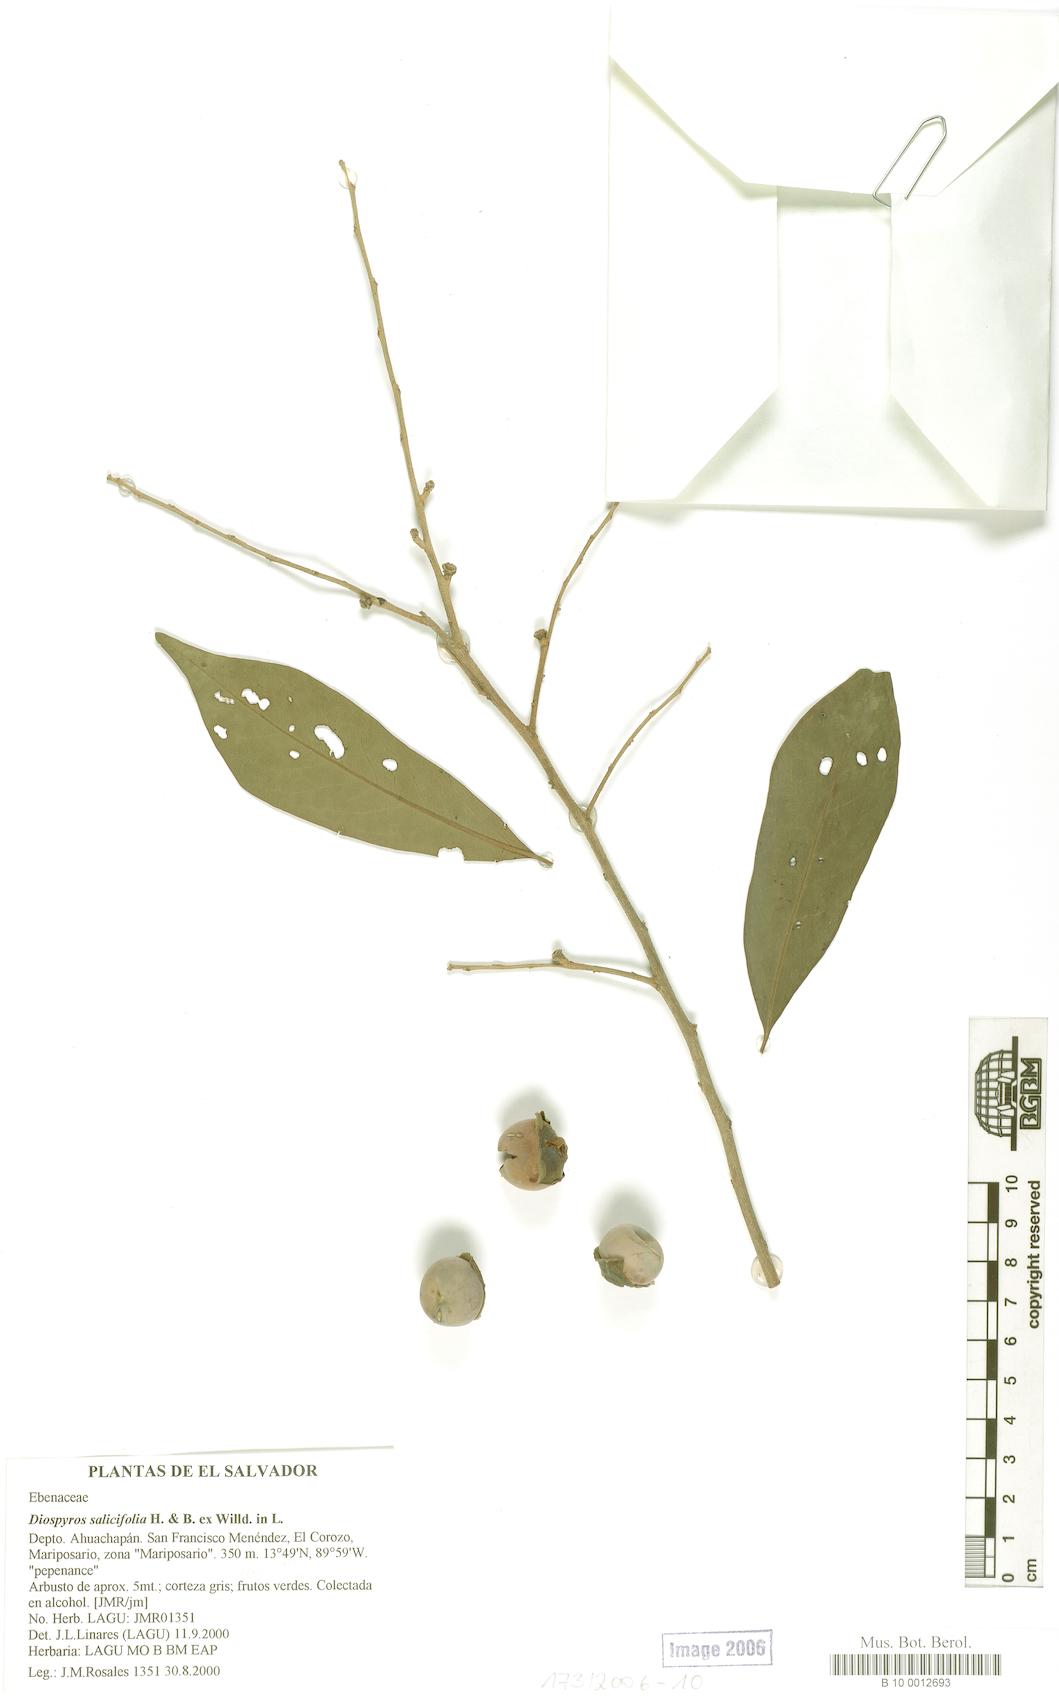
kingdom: Plantae
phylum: Tracheophyta
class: Magnoliopsida
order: Ericales
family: Ebenaceae
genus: Diospyros
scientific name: Diospyros salicifolia
